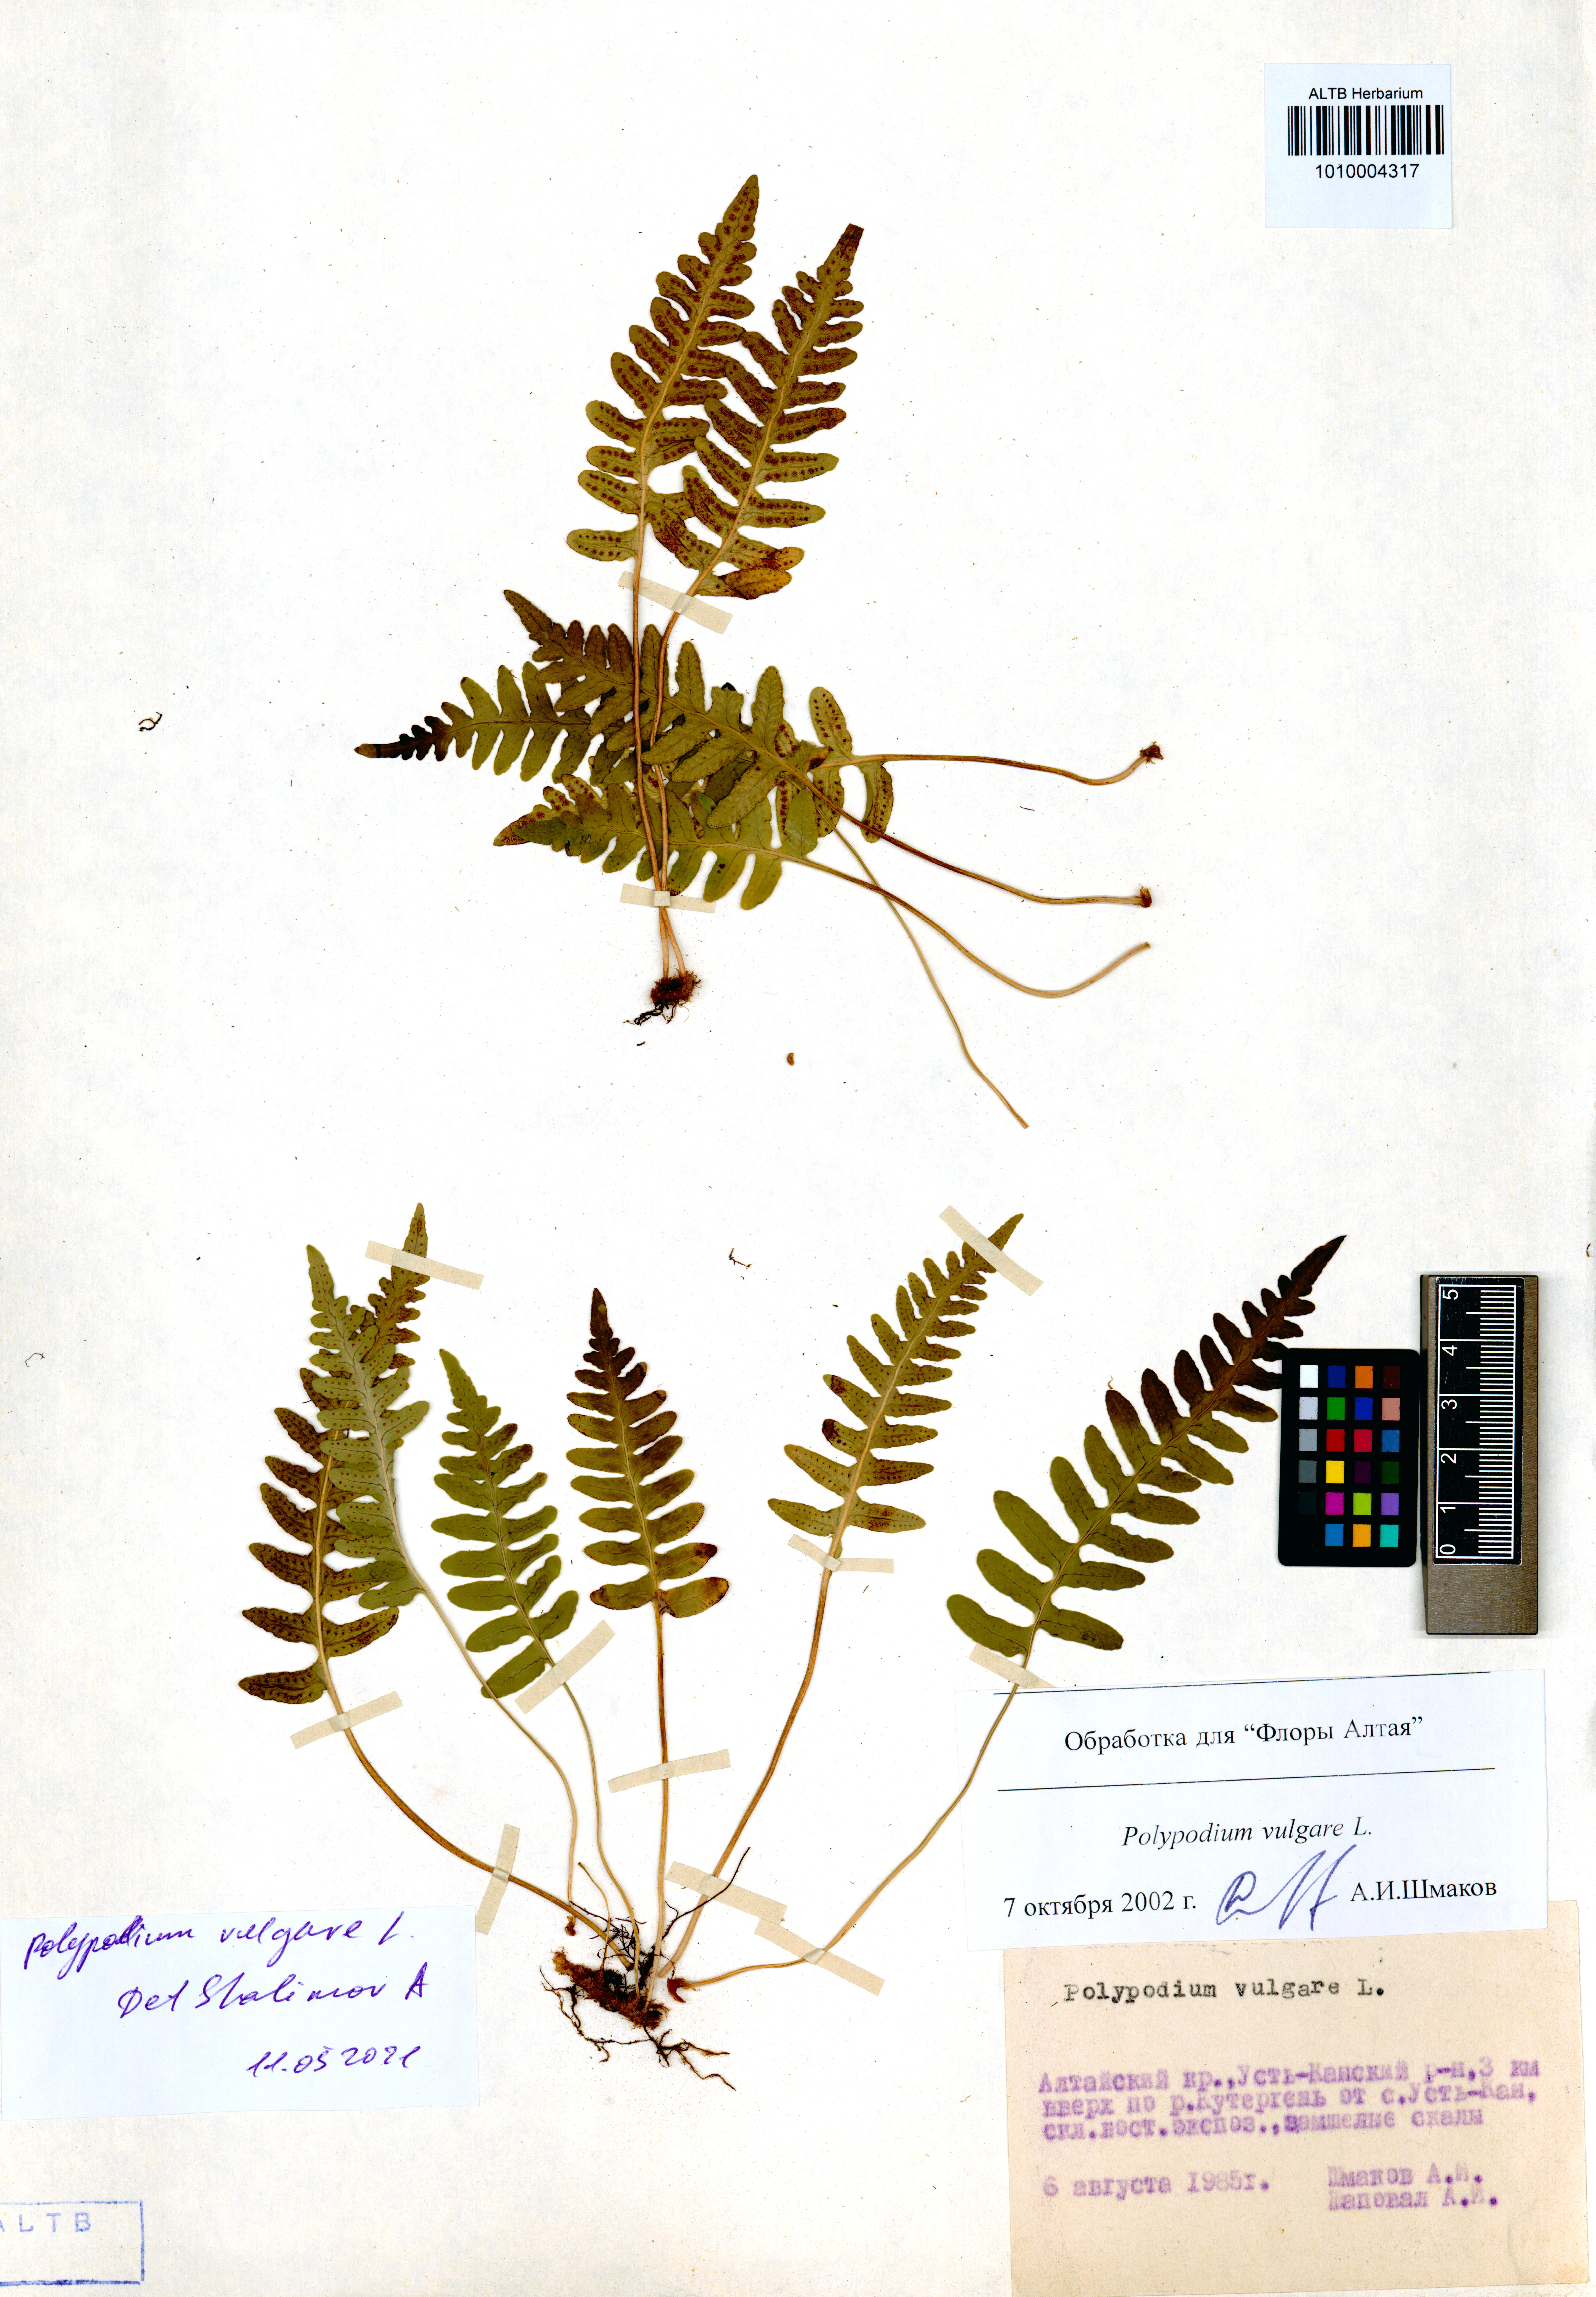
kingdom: Plantae
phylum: Tracheophyta
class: Polypodiopsida
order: Polypodiales
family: Polypodiaceae
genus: Polypodium
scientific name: Polypodium vulgare
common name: Common polypody
